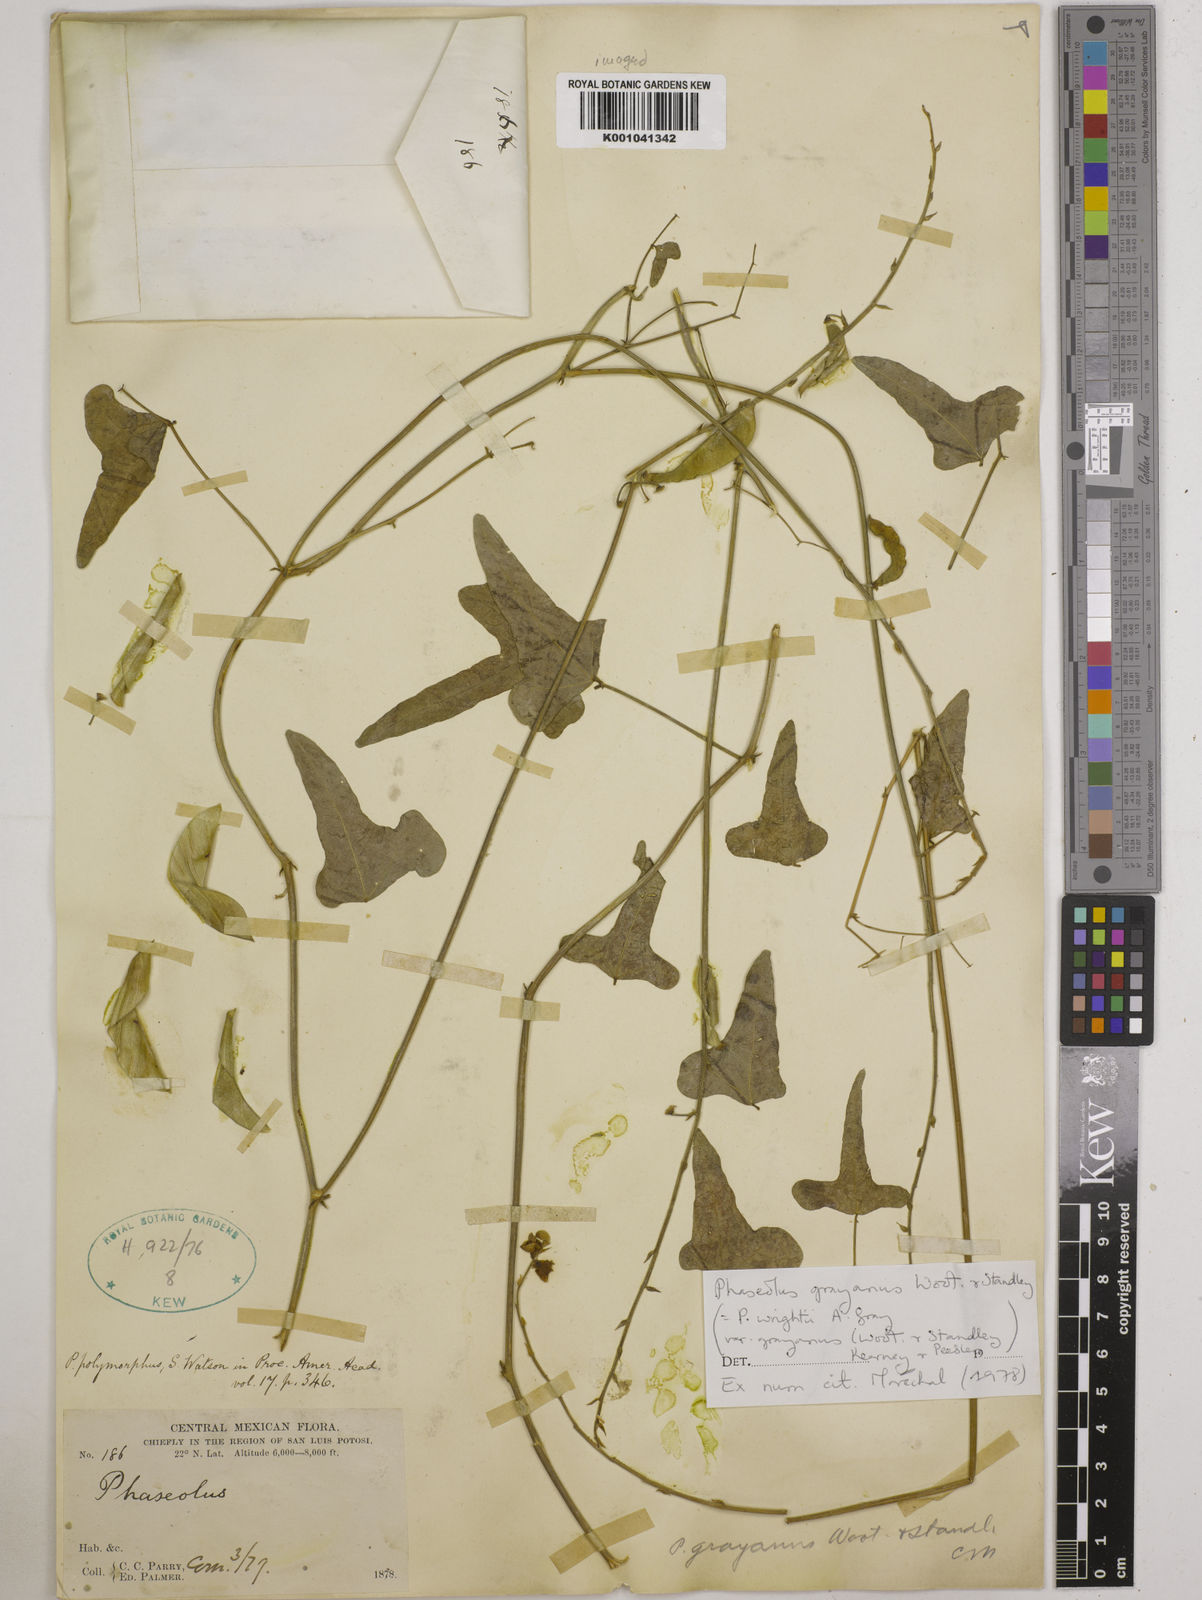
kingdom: Plantae
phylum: Tracheophyta
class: Magnoliopsida
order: Fabales
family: Fabaceae
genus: Phaseolus
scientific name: Phaseolus pedicellatus
